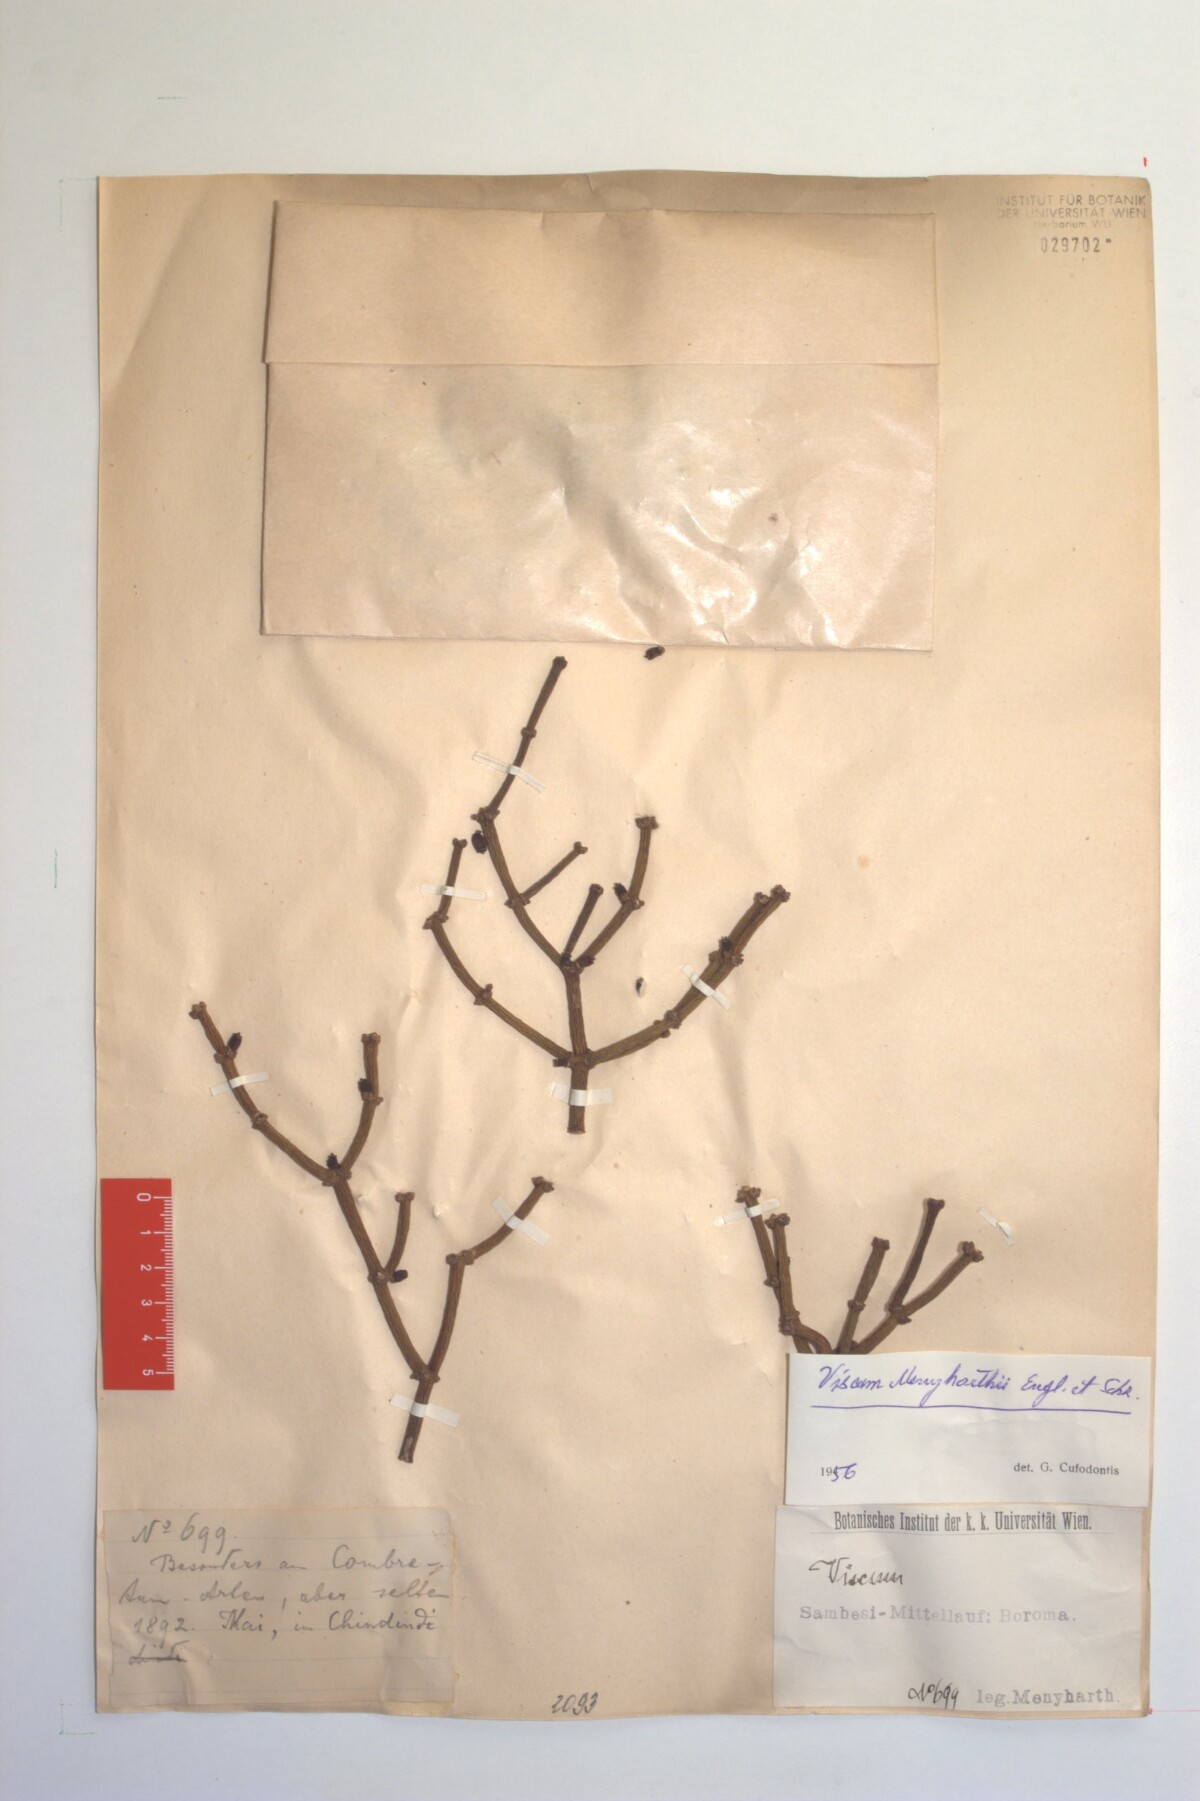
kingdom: Plantae
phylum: Tracheophyta
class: Magnoliopsida
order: Santalales
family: Viscaceae
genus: Viscum
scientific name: Viscum menyhartii
